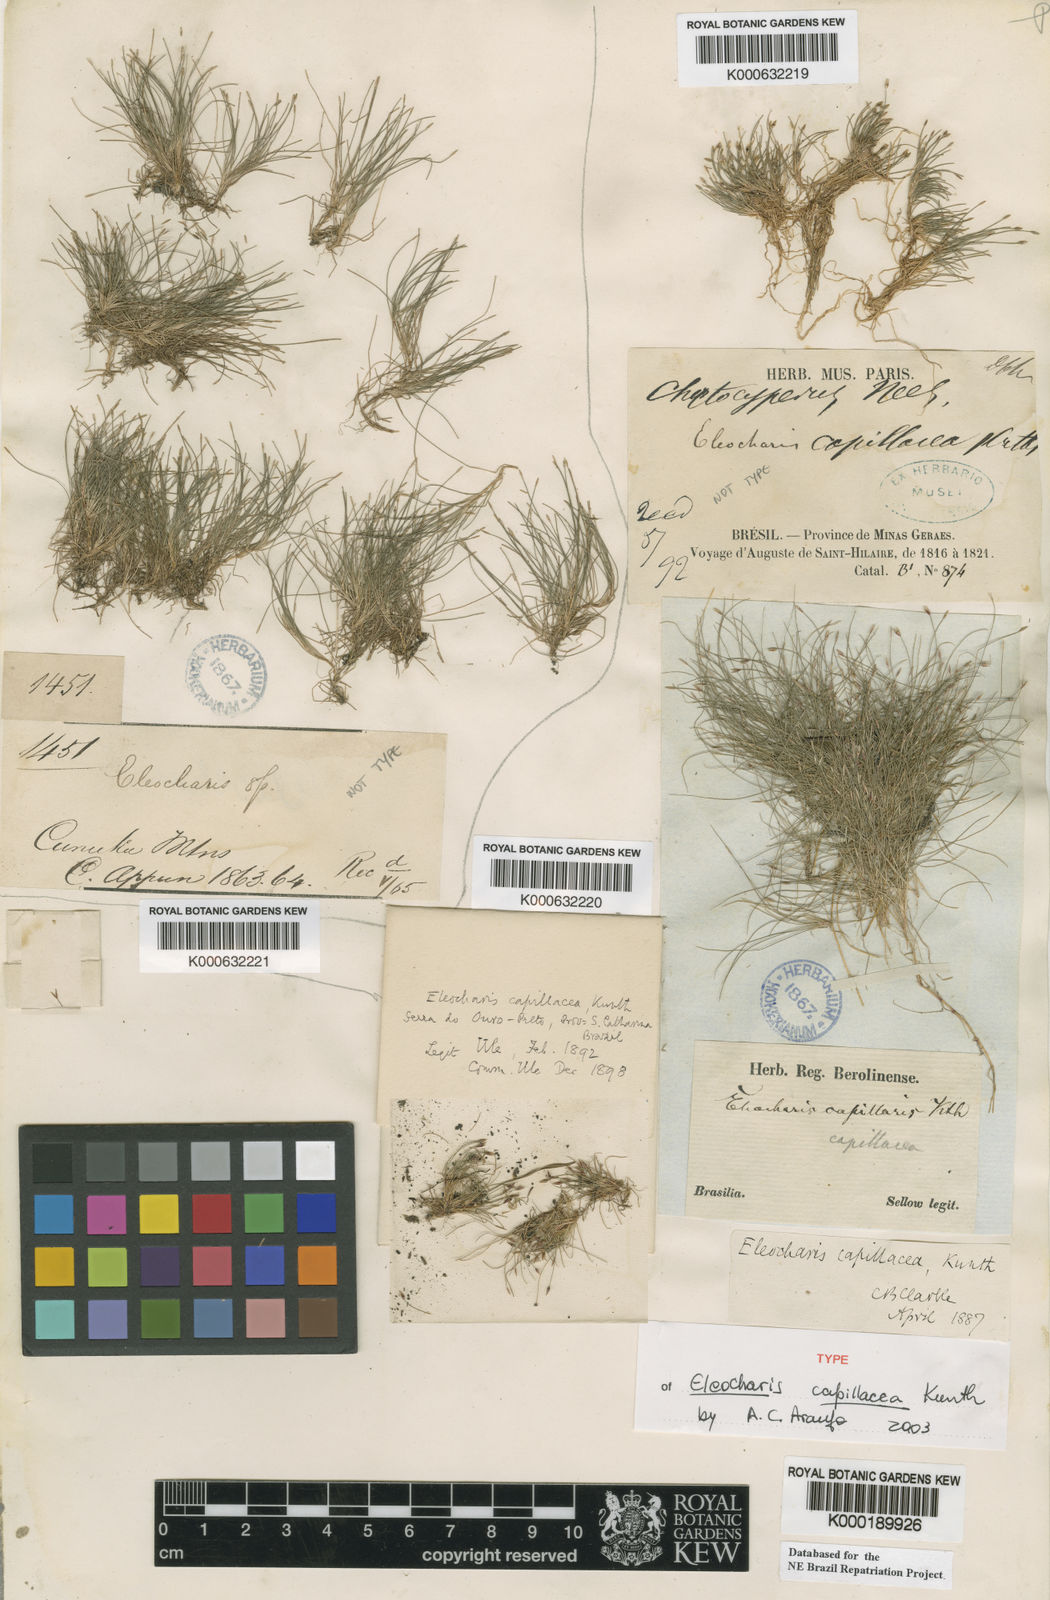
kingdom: Plantae
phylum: Tracheophyta
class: Liliopsida
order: Poales
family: Cyperaceae
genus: Eleocharis
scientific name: Eleocharis capillacea
